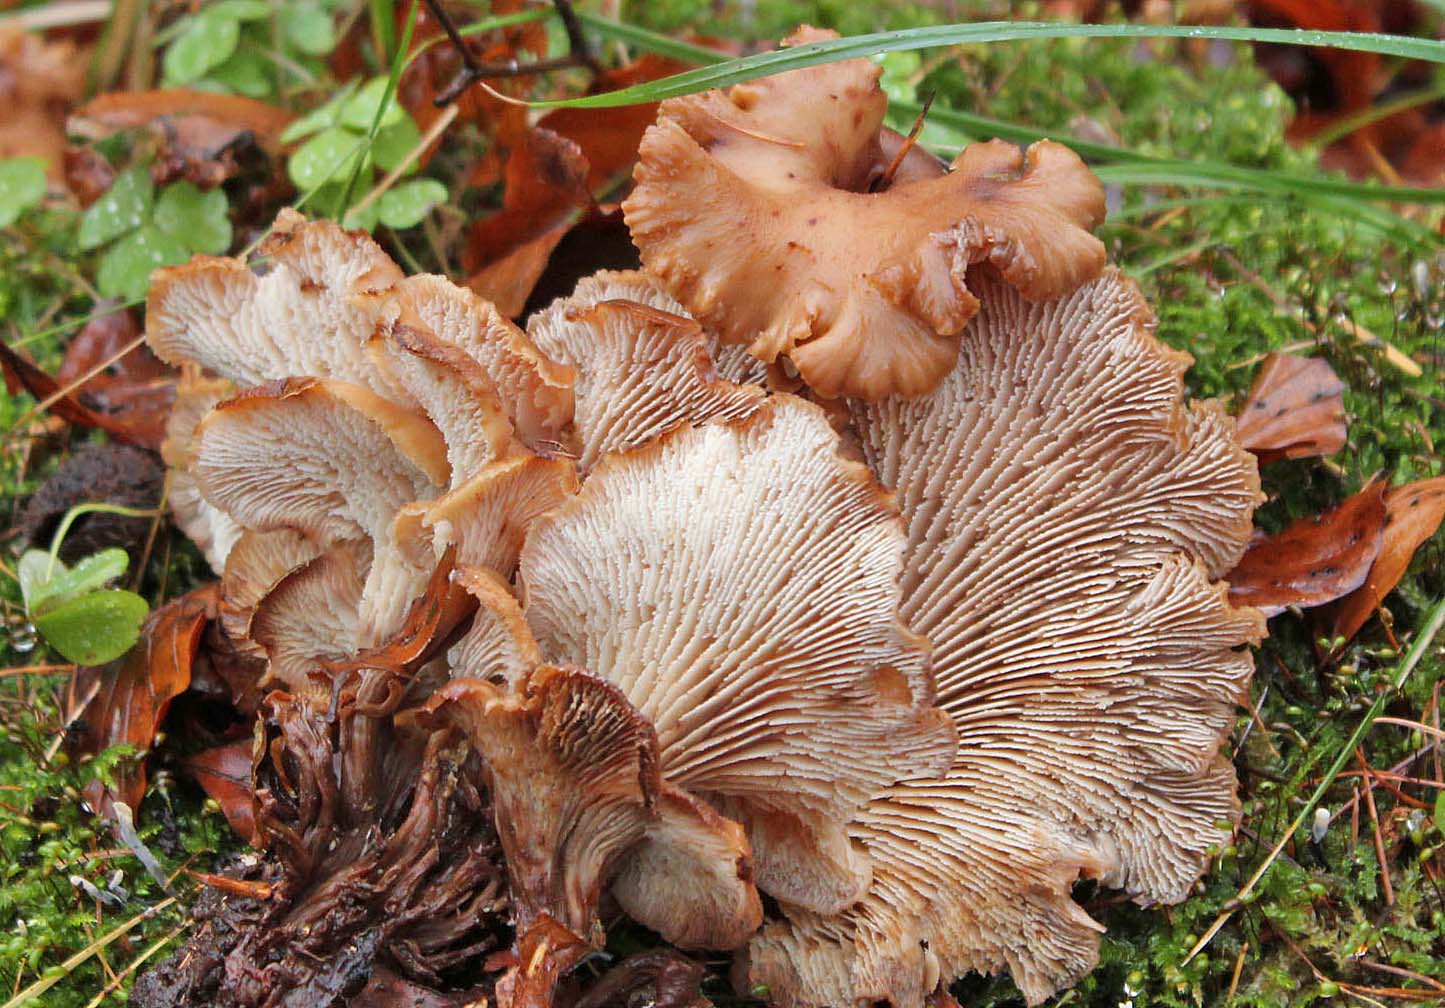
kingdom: Fungi
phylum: Basidiomycota
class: Agaricomycetes
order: Russulales
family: Auriscalpiaceae
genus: Lentinellus
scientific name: Lentinellus cochleatus
